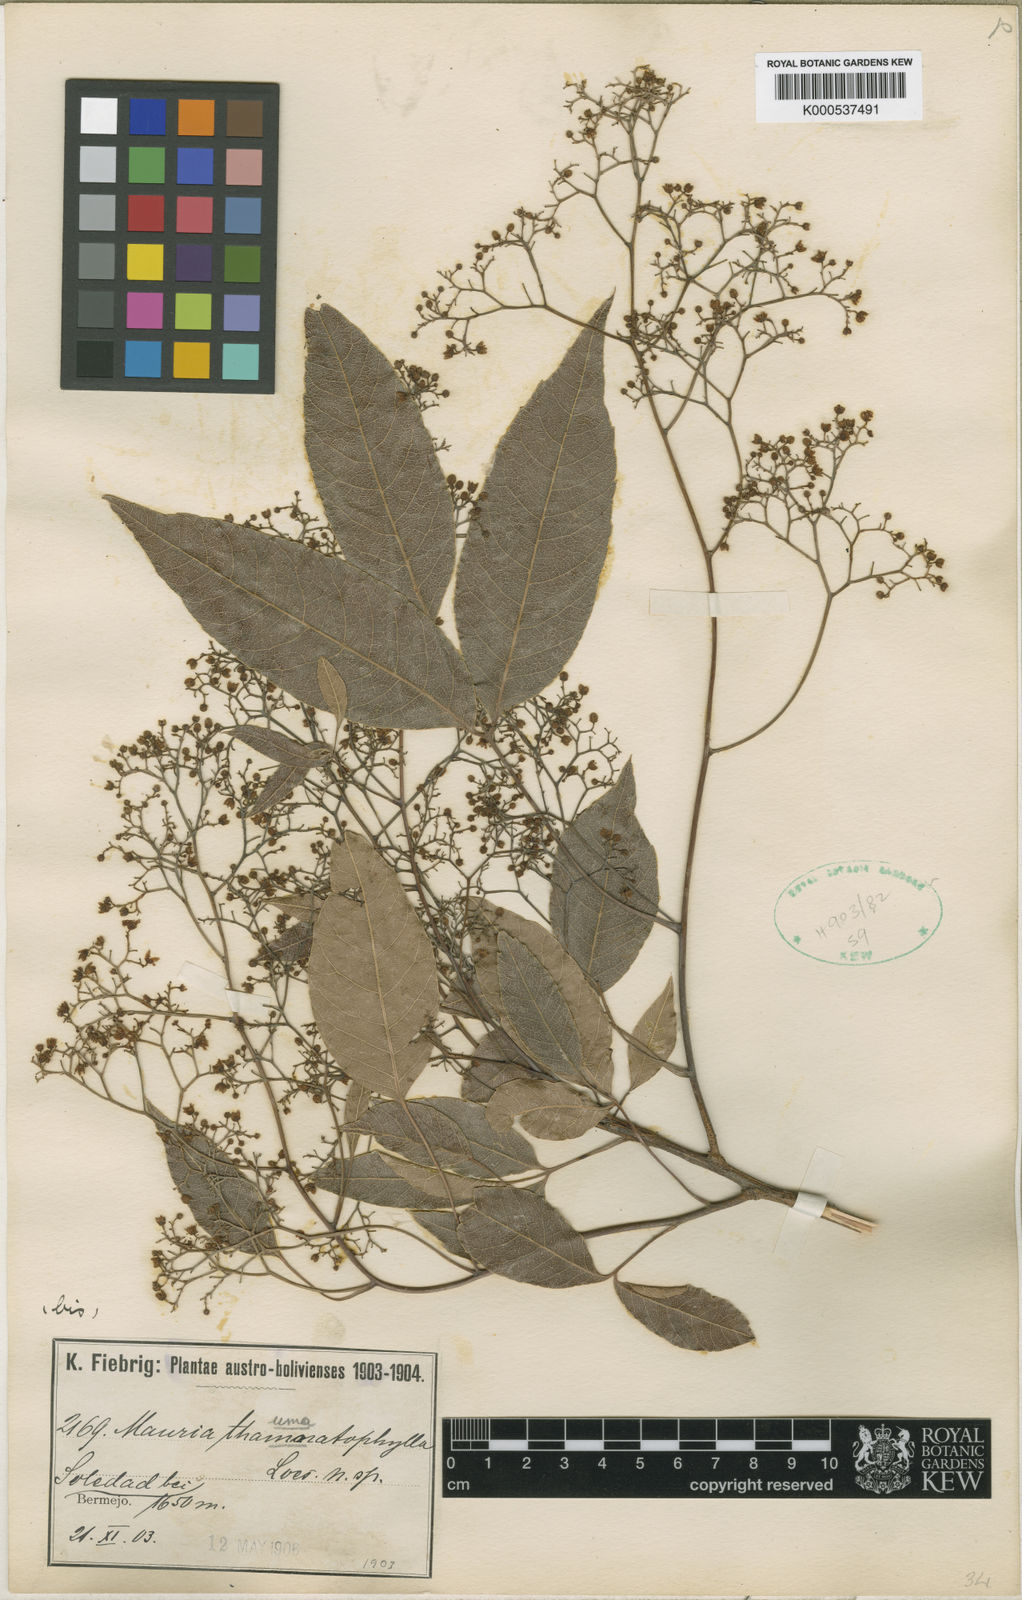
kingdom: Plantae
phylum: Tracheophyta
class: Magnoliopsida
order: Sapindales
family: Anacardiaceae
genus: Mauria
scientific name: Mauria thaumatophylla
